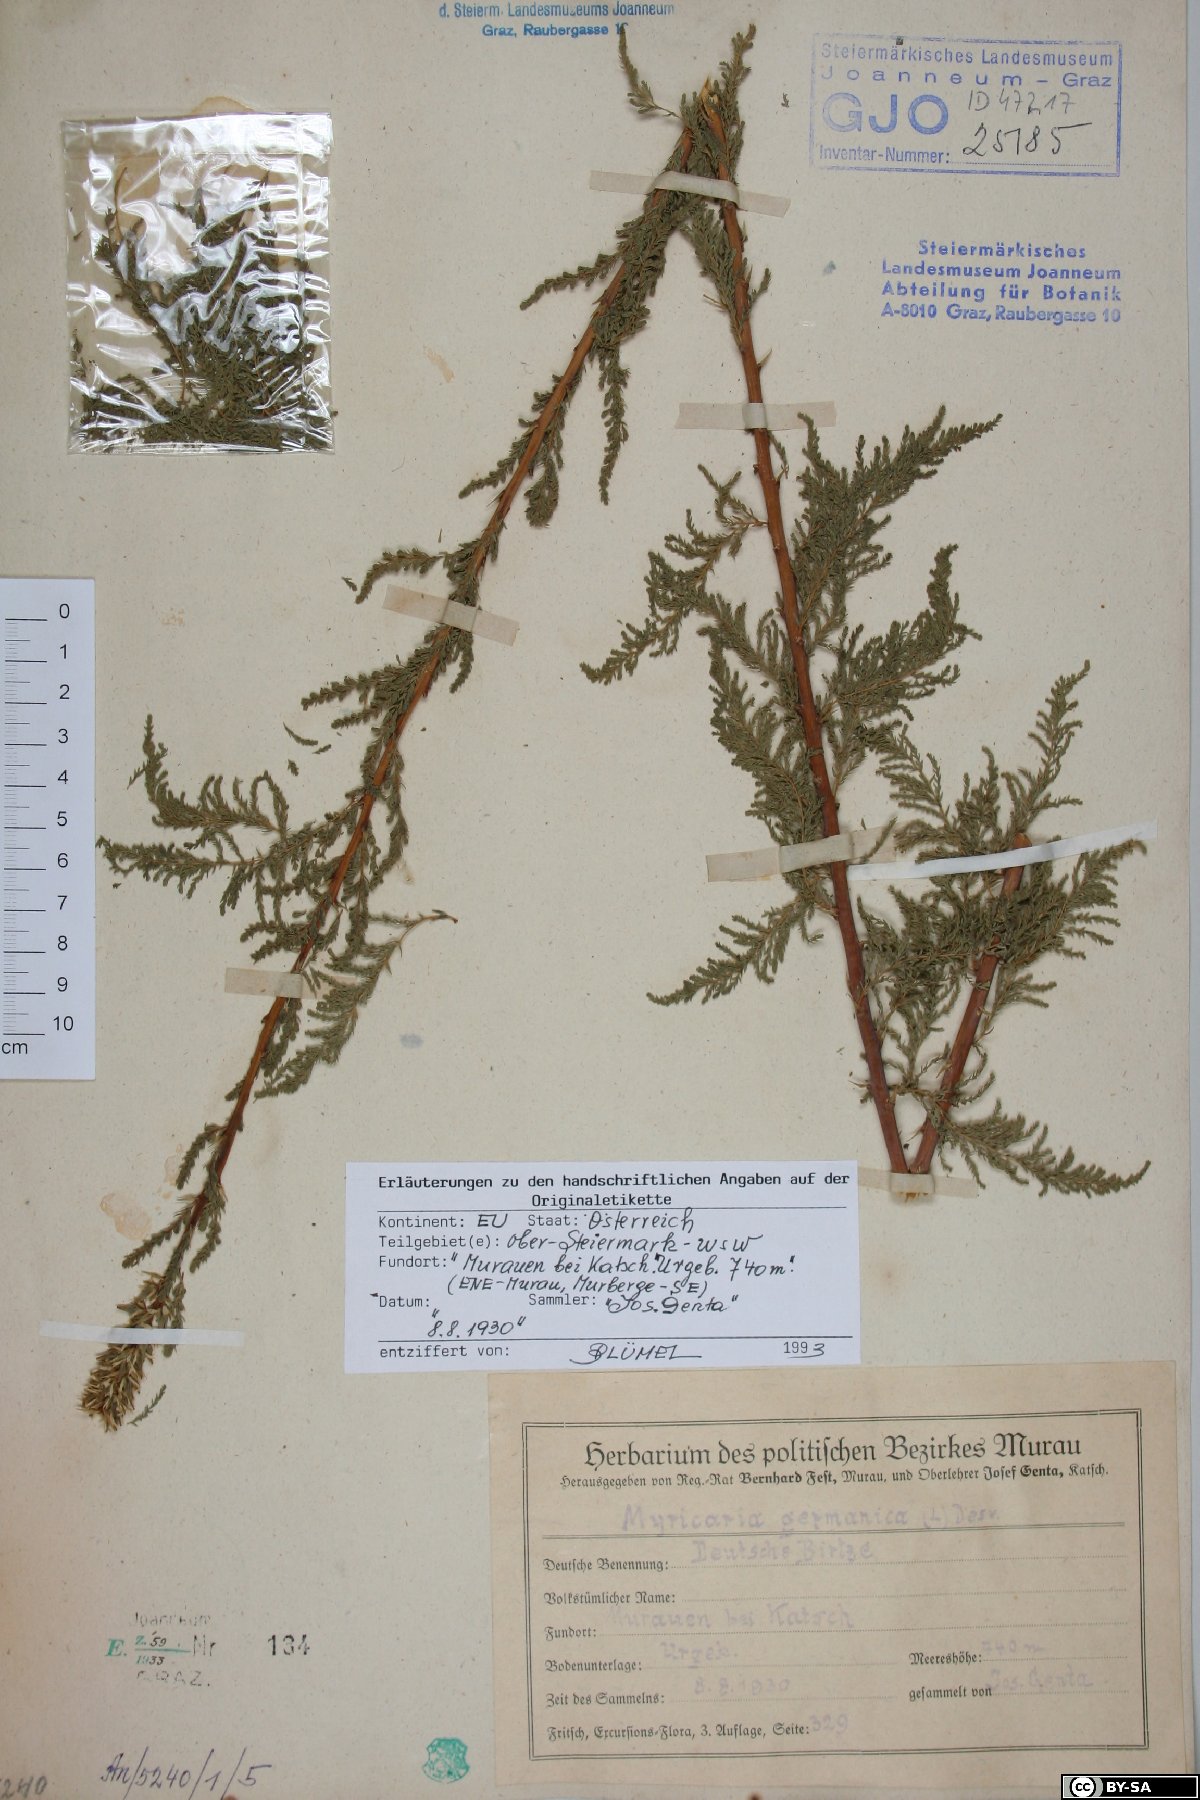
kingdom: Plantae
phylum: Tracheophyta
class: Magnoliopsida
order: Caryophyllales
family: Tamaricaceae
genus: Myricaria
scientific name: Myricaria germanica
